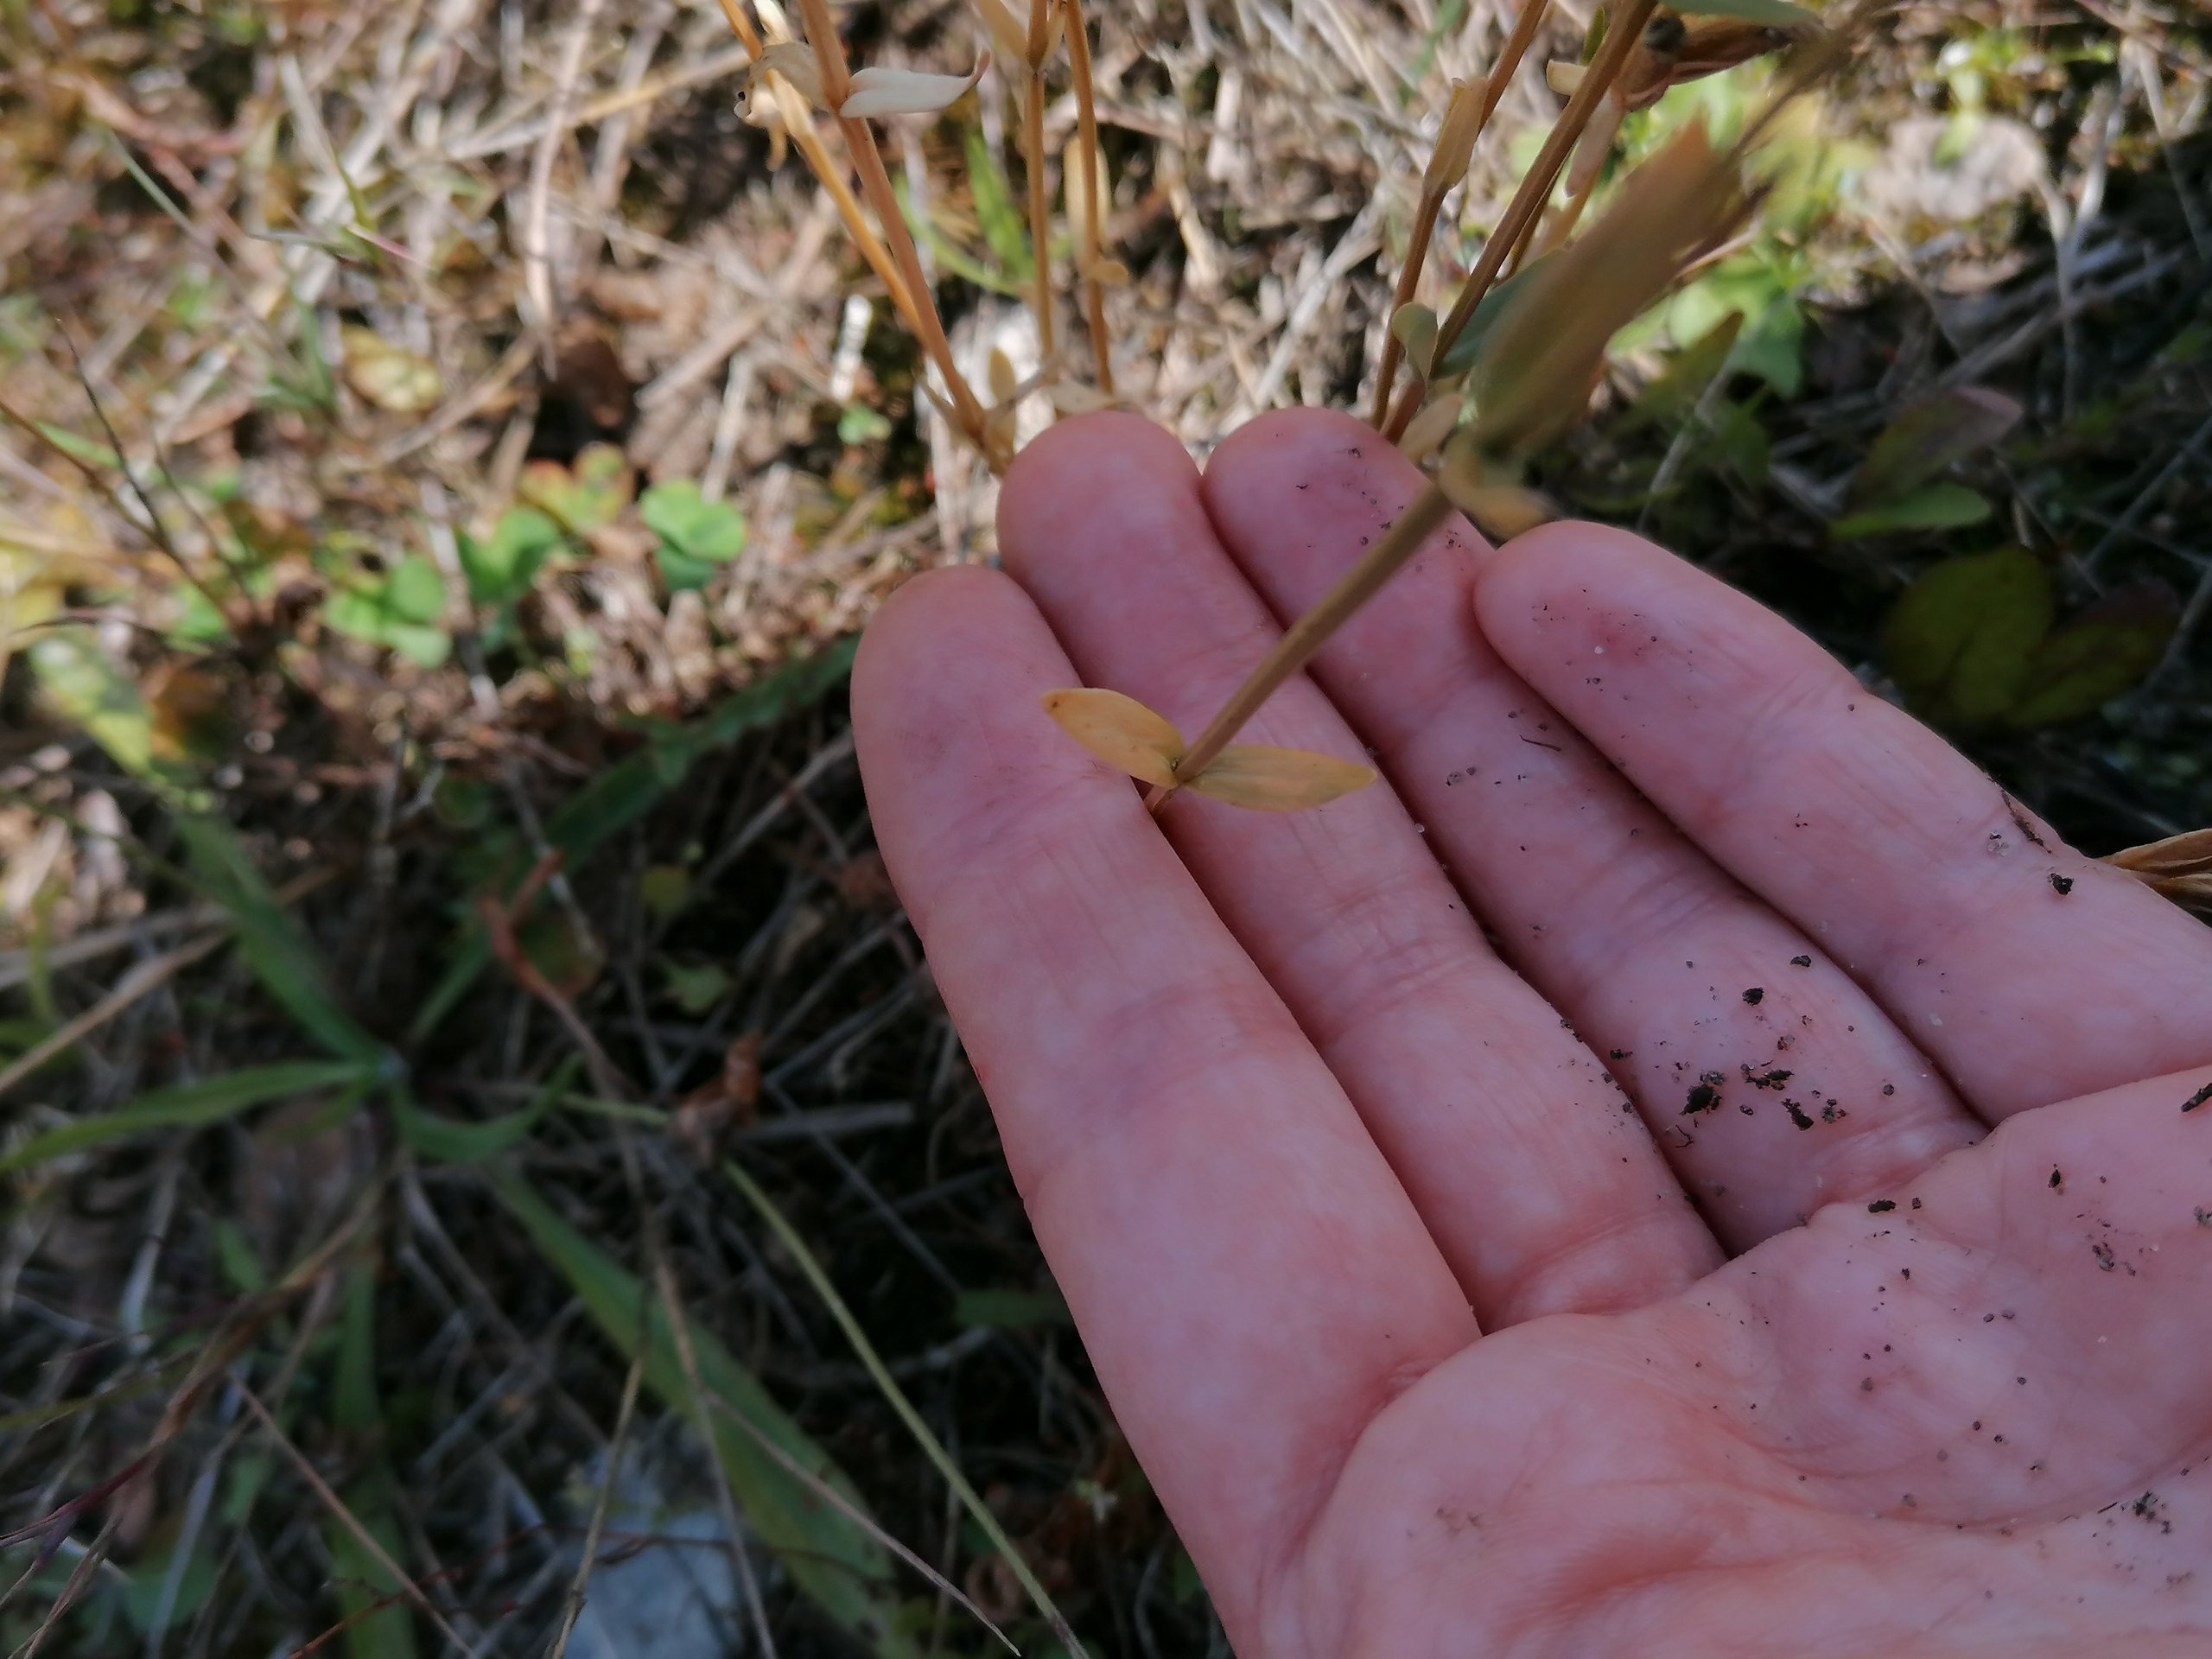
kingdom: Plantae
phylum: Tracheophyta
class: Magnoliopsida
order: Gentianales
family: Gentianaceae
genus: Centaurium
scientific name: Centaurium erythraea
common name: Mark-tusindgylden
